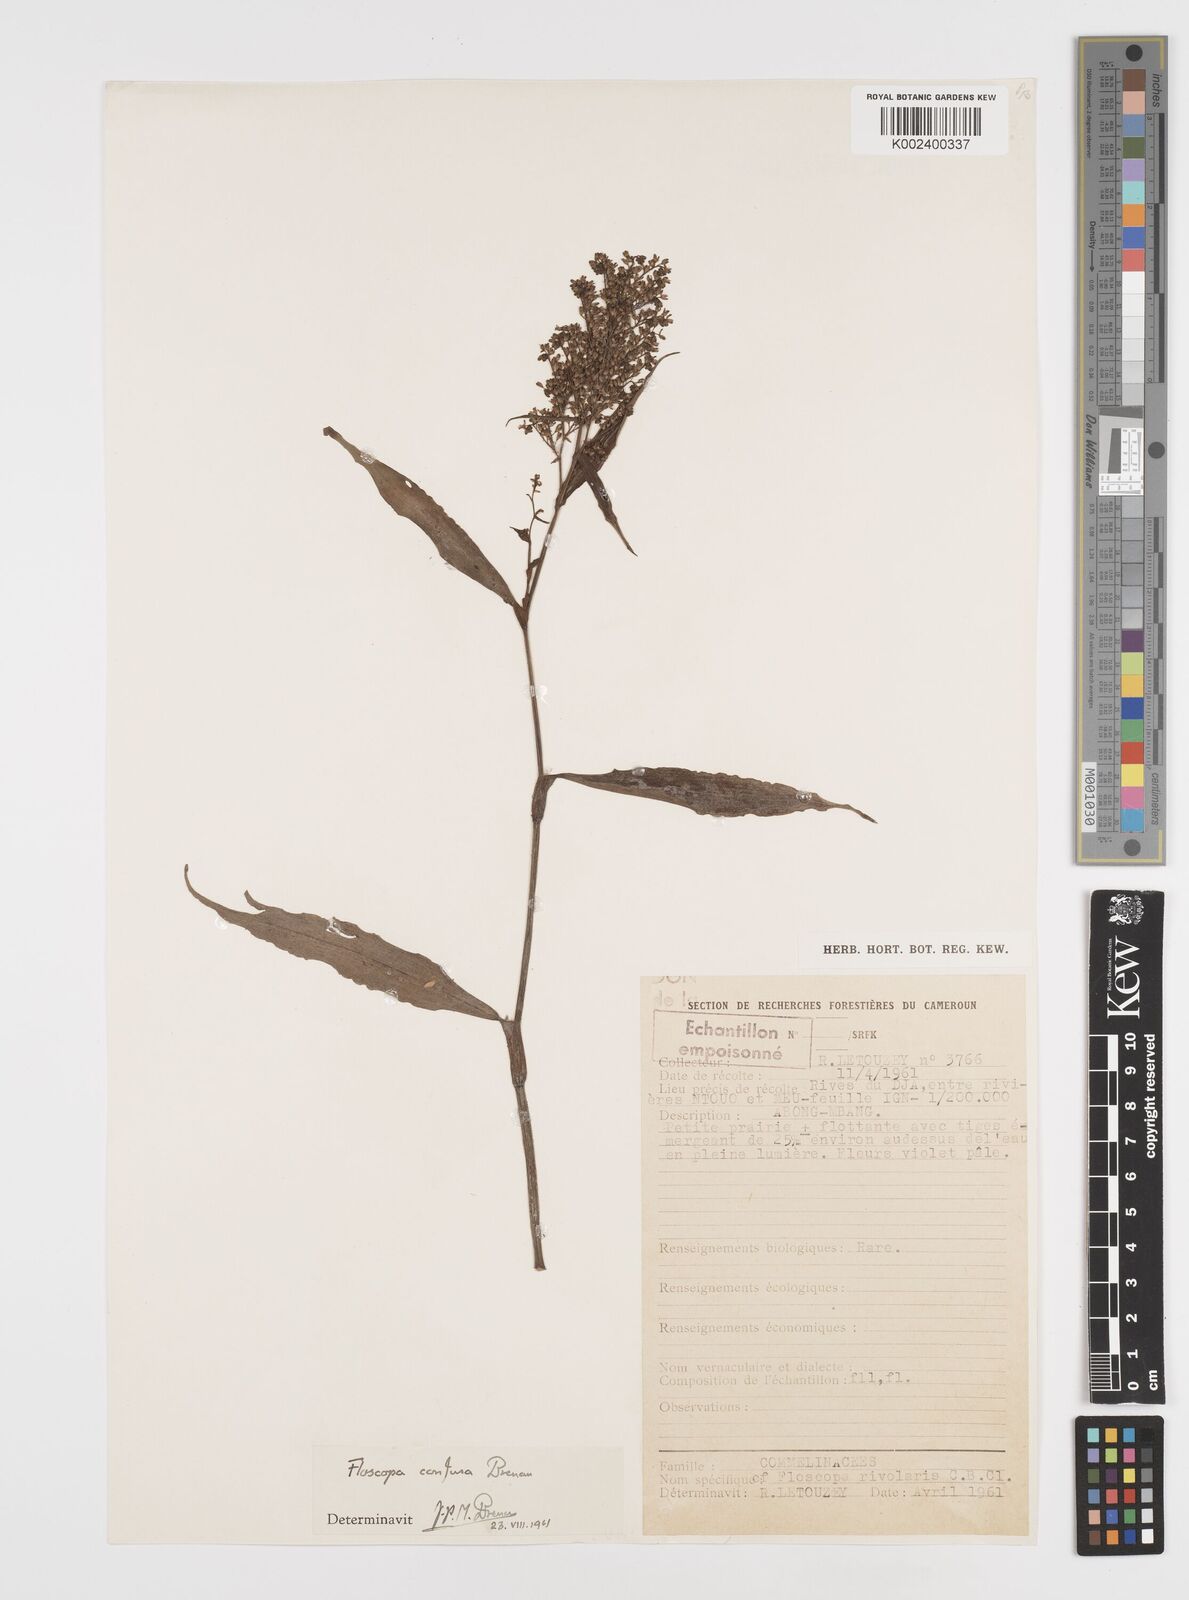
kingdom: Plantae
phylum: Tracheophyta
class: Liliopsida
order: Commelinales
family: Commelinaceae
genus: Floscopa
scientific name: Floscopa confusa
